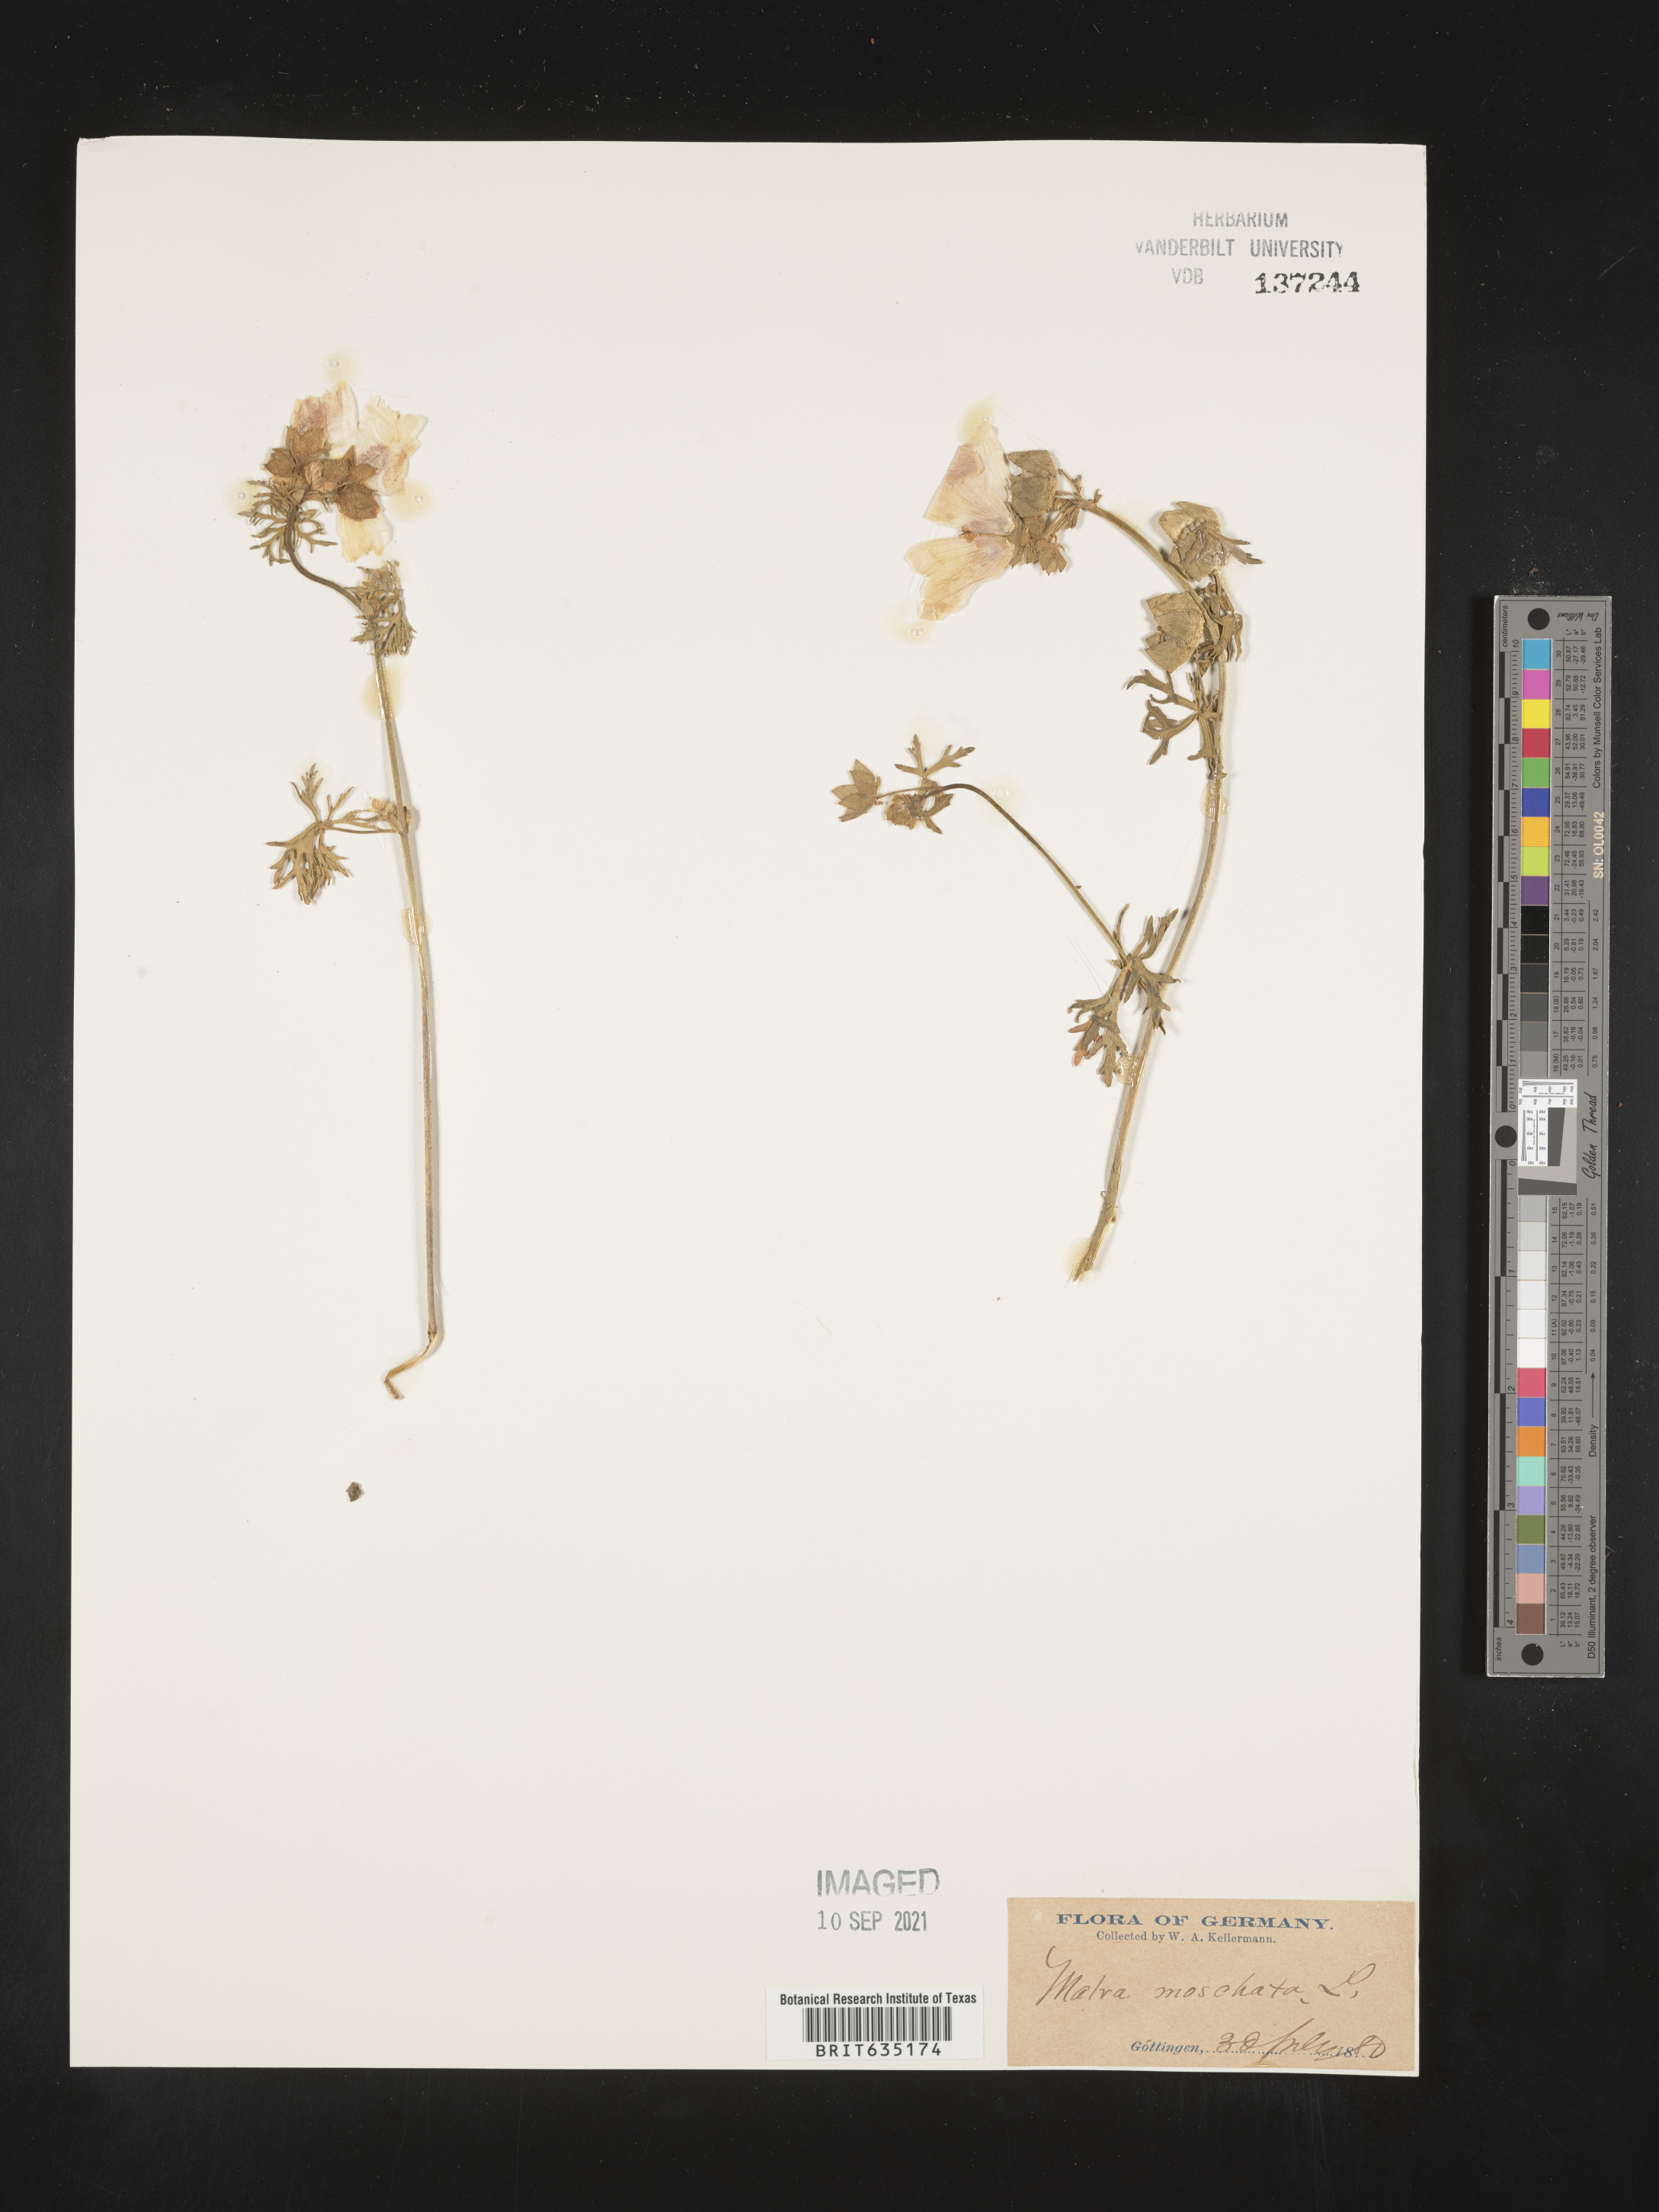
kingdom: Plantae
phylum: Tracheophyta
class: Magnoliopsida
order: Malvales
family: Malvaceae
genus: Malva
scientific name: Malva
